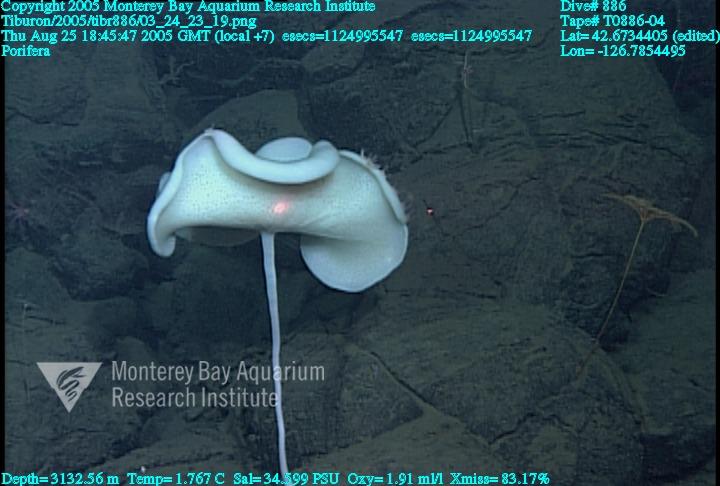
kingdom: Animalia
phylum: Porifera
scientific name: Porifera
